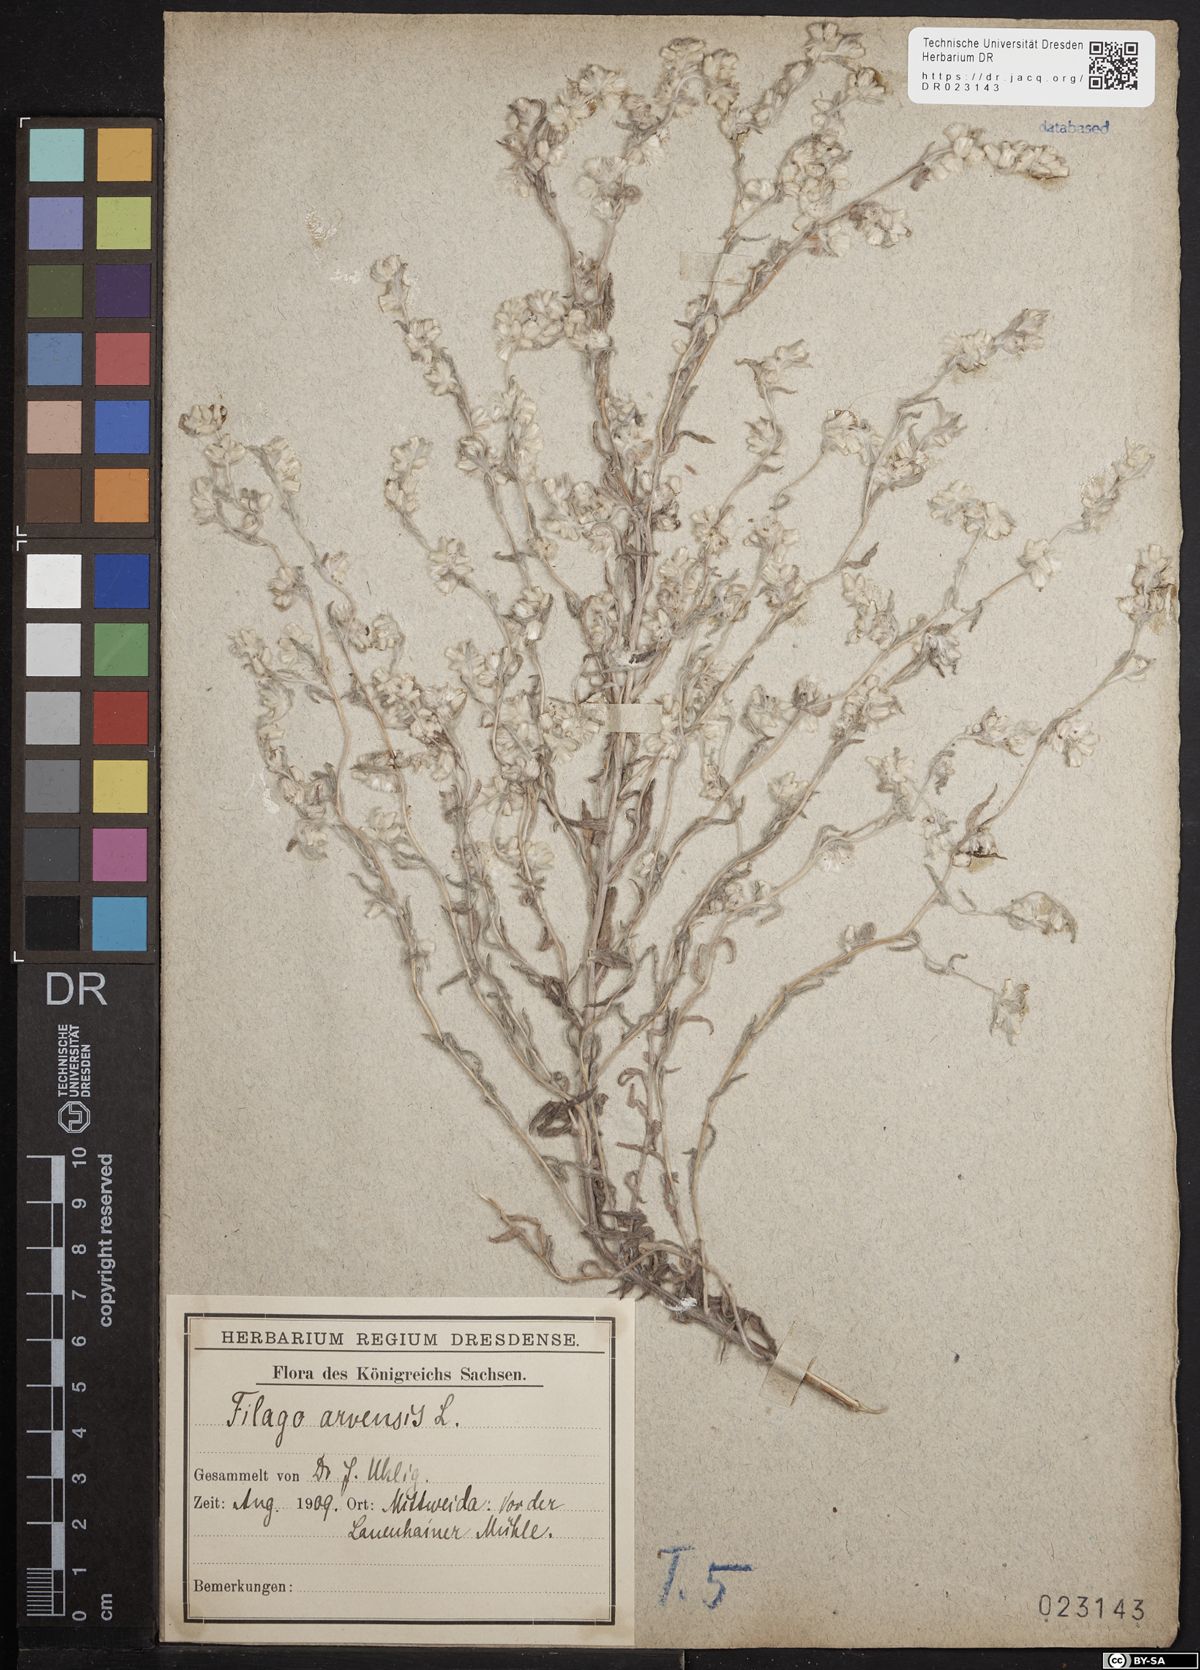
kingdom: Plantae
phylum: Tracheophyta
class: Magnoliopsida
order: Asterales
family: Asteraceae
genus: Filago
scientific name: Filago arvensis
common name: Field cudweed
